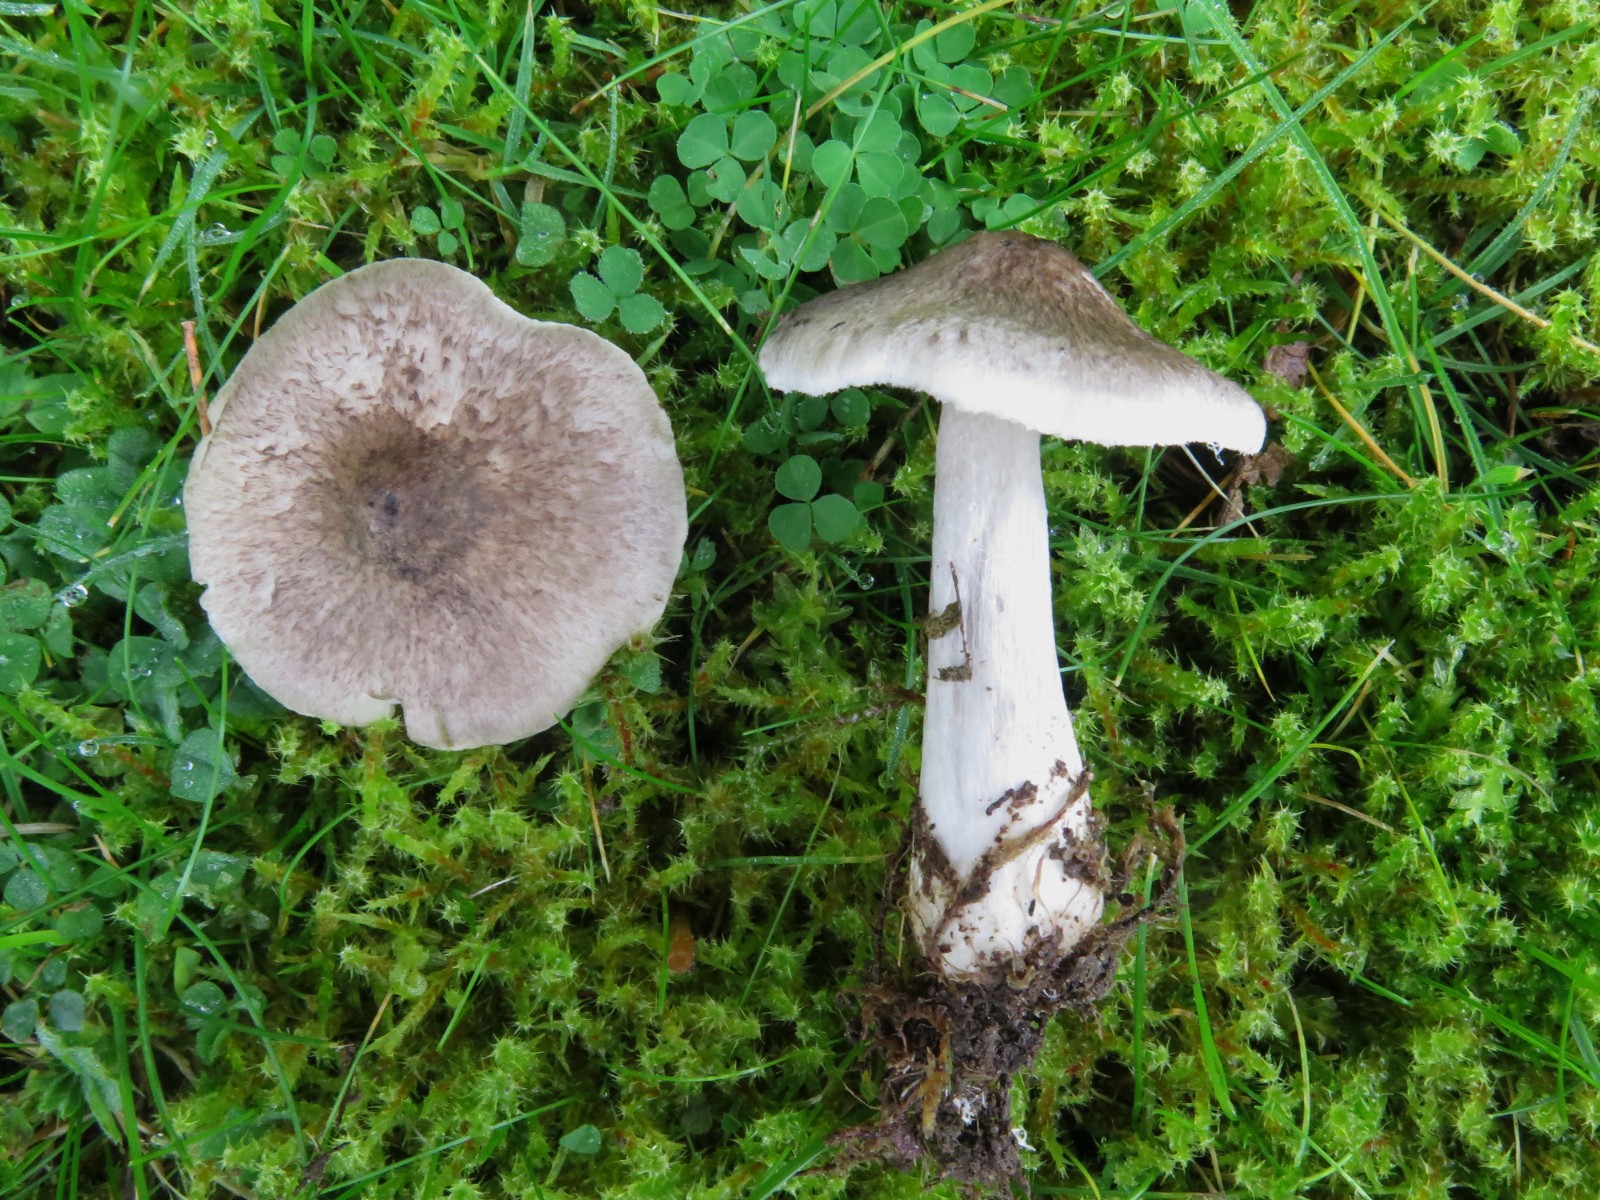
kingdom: Fungi
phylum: Basidiomycota
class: Agaricomycetes
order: Agaricales
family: Tricholomataceae
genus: Tricholoma
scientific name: Tricholoma argyraceum
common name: slør-ridderhat
